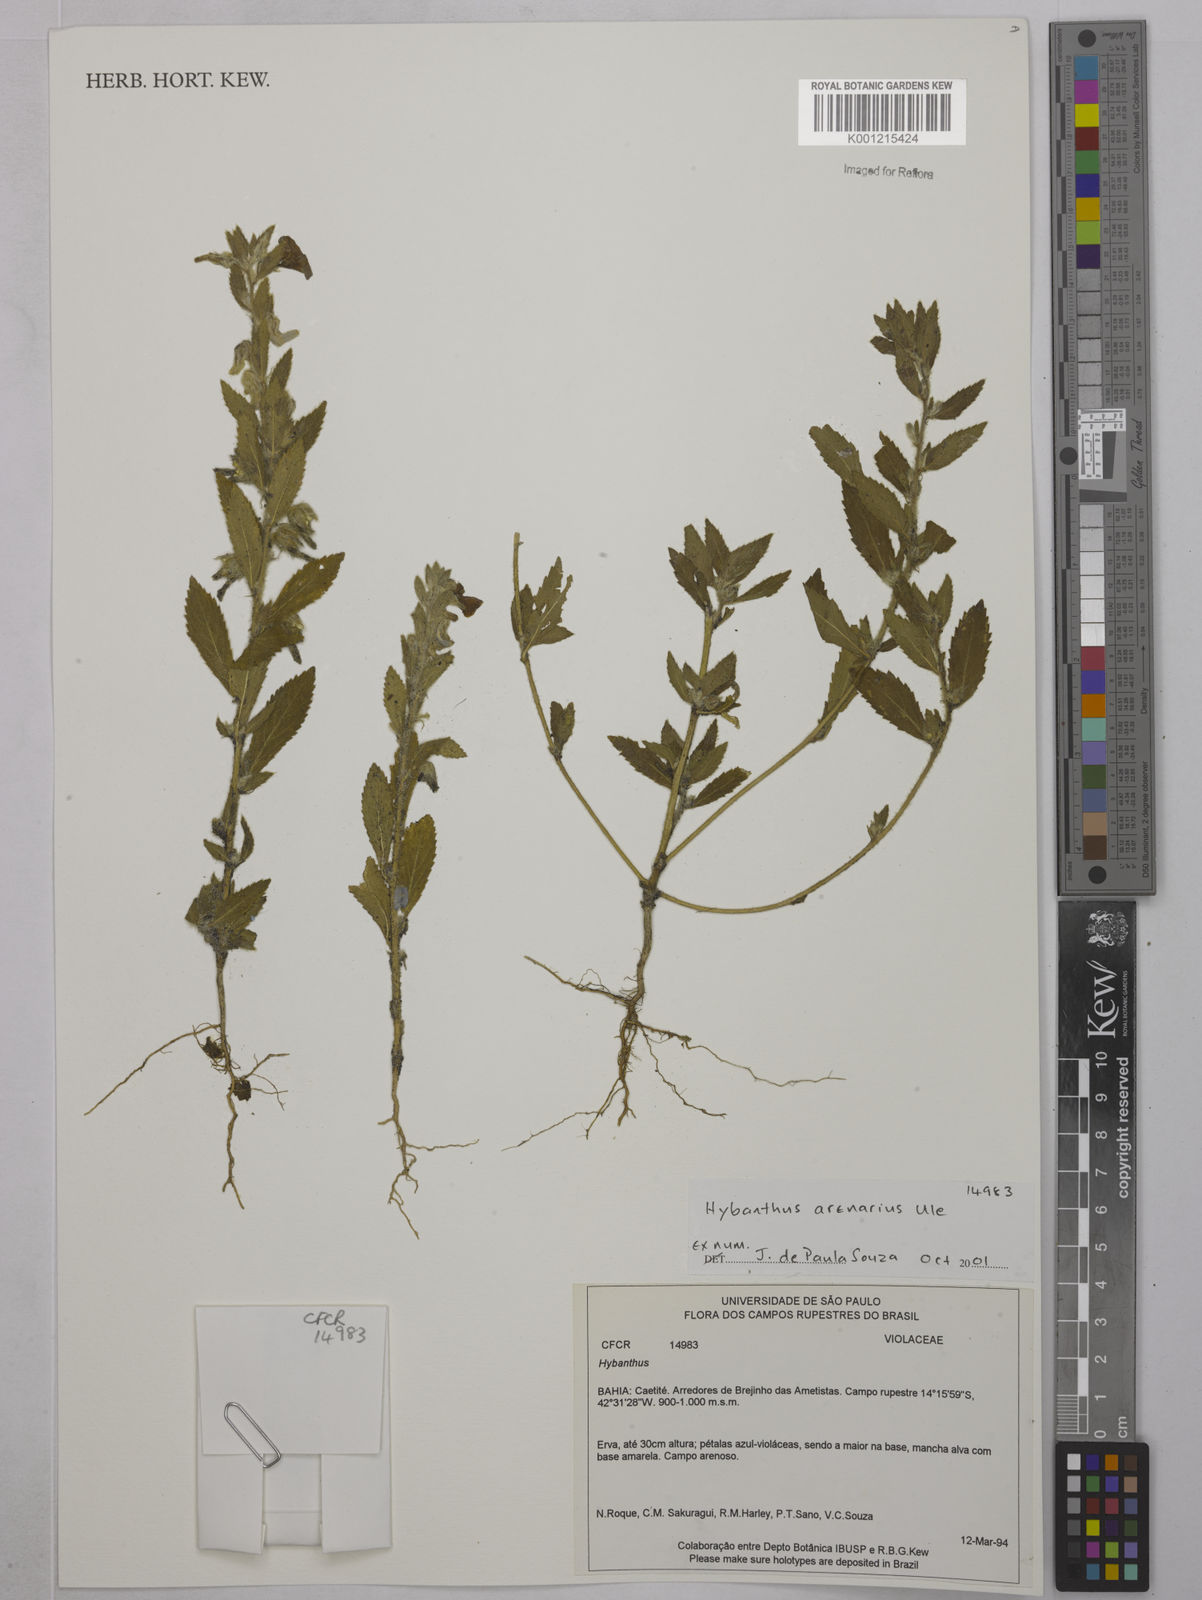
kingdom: Plantae
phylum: Tracheophyta
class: Magnoliopsida
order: Malpighiales
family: Violaceae
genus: Pombalia
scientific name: Pombalia arenaria
